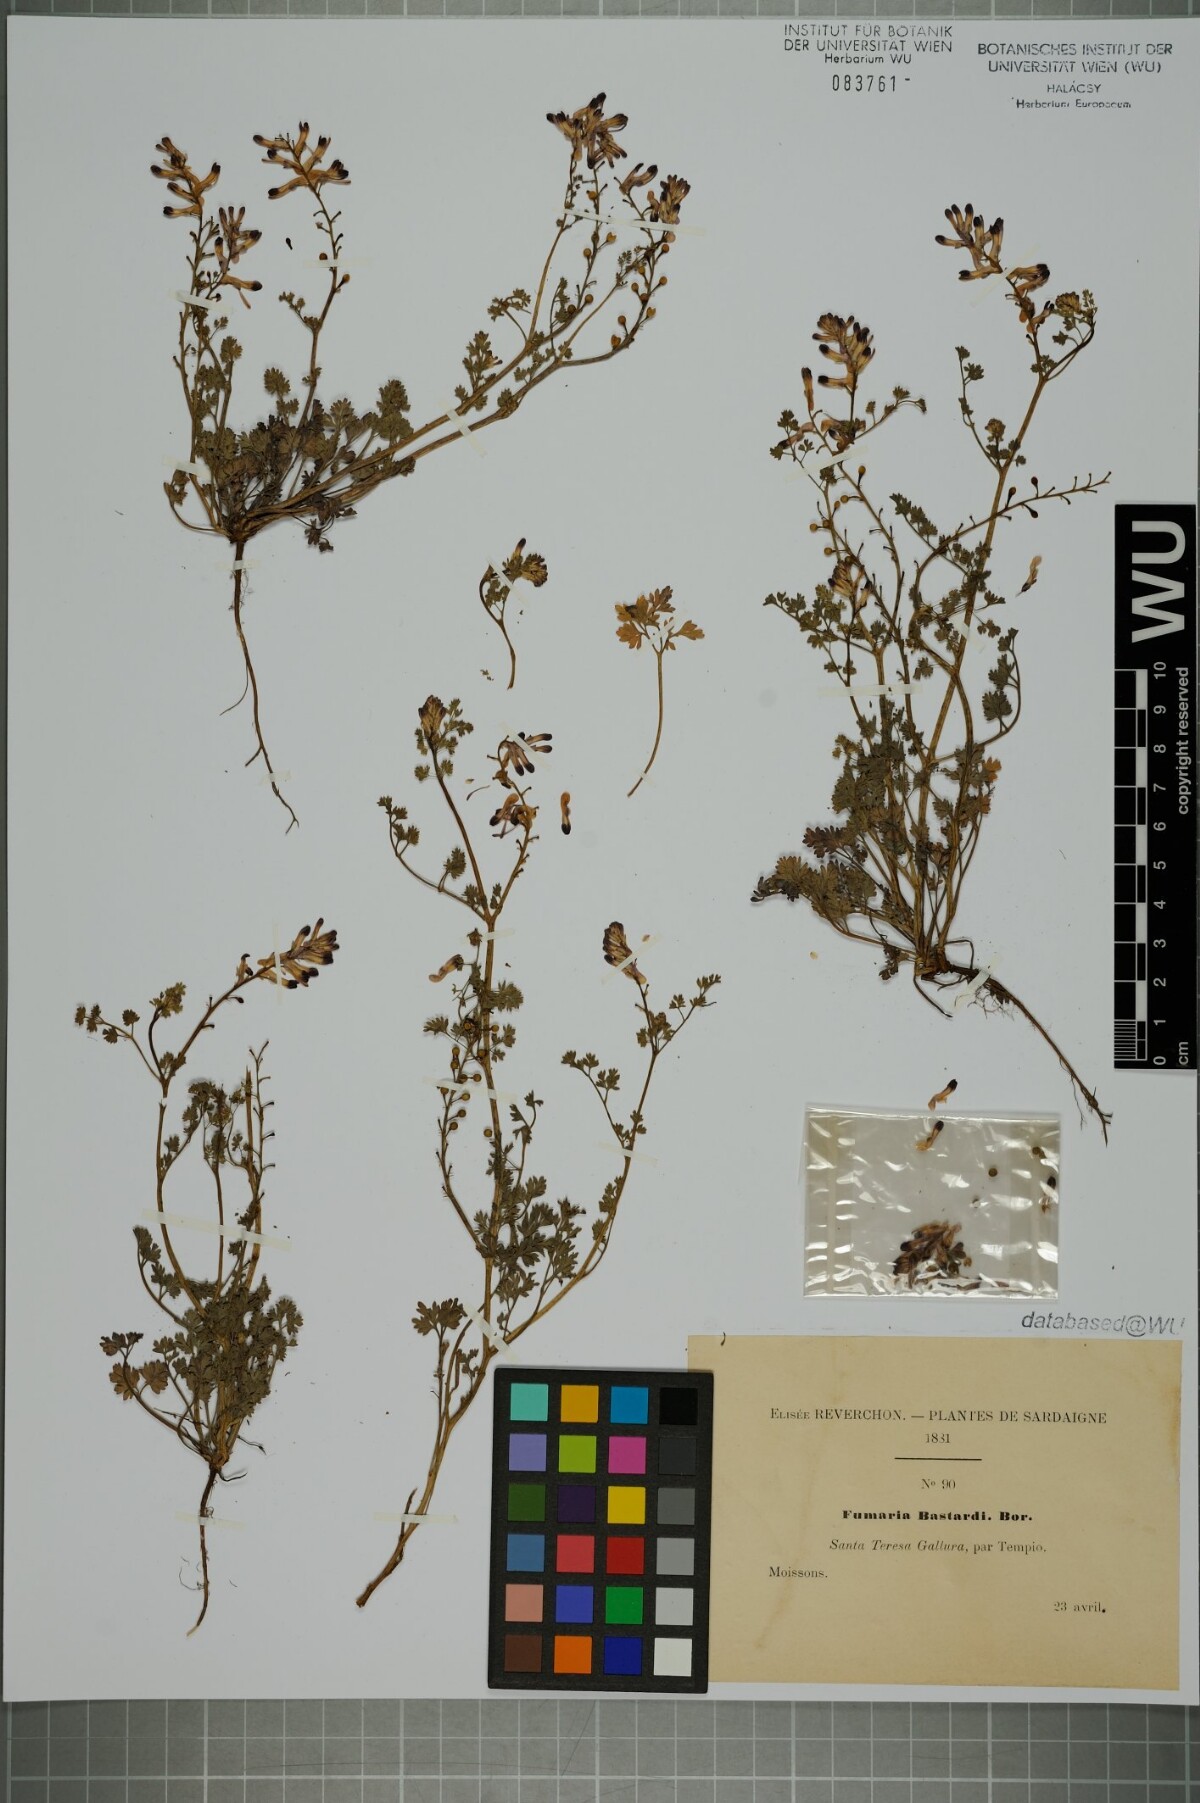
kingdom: Plantae
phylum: Tracheophyta
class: Magnoliopsida
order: Ranunculales
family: Papaveraceae
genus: Fumaria
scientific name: Fumaria bastardii
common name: Tall ramping-fumitory
